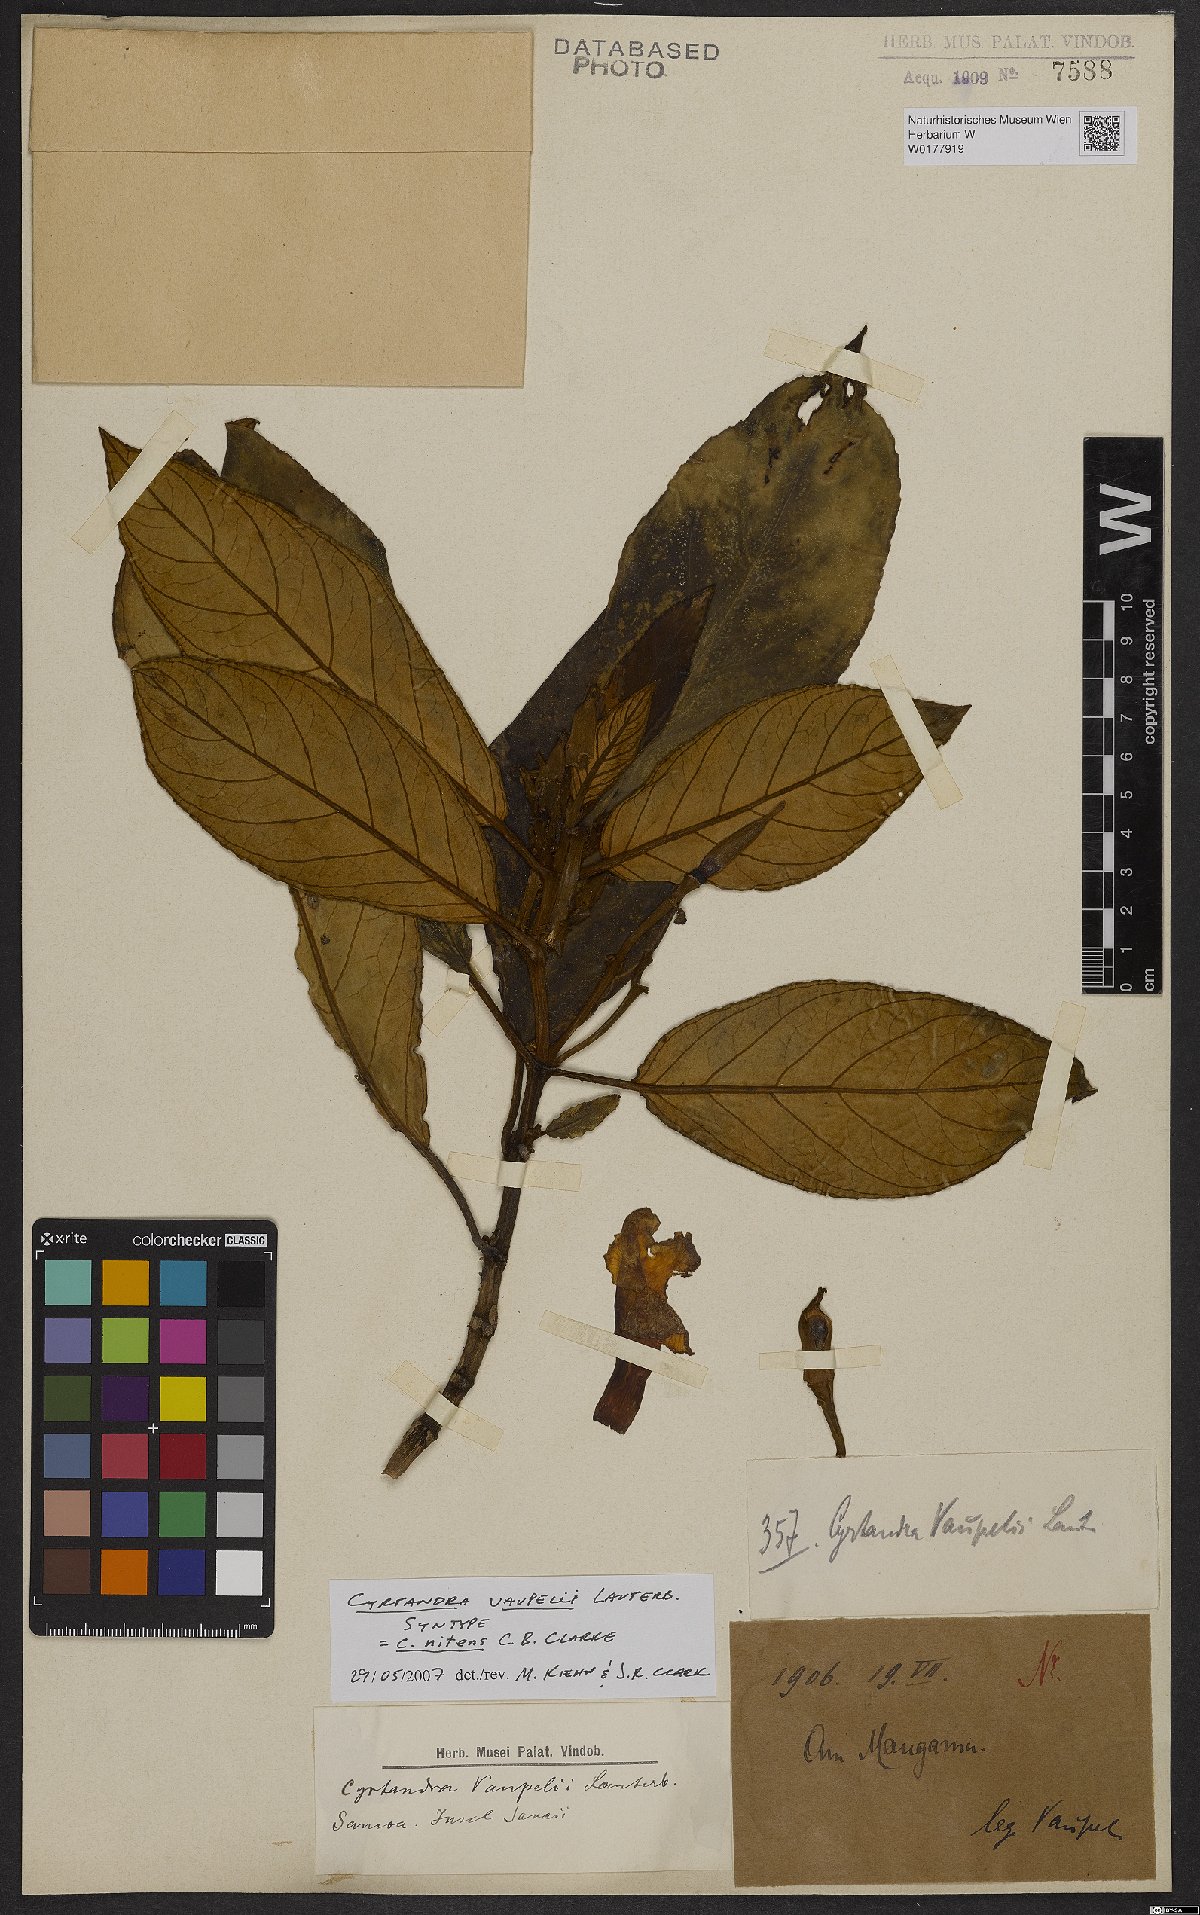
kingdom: Plantae
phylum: Tracheophyta
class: Magnoliopsida
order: Lamiales
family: Gesneriaceae
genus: Cyrtandra
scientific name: Cyrtandra nitens
